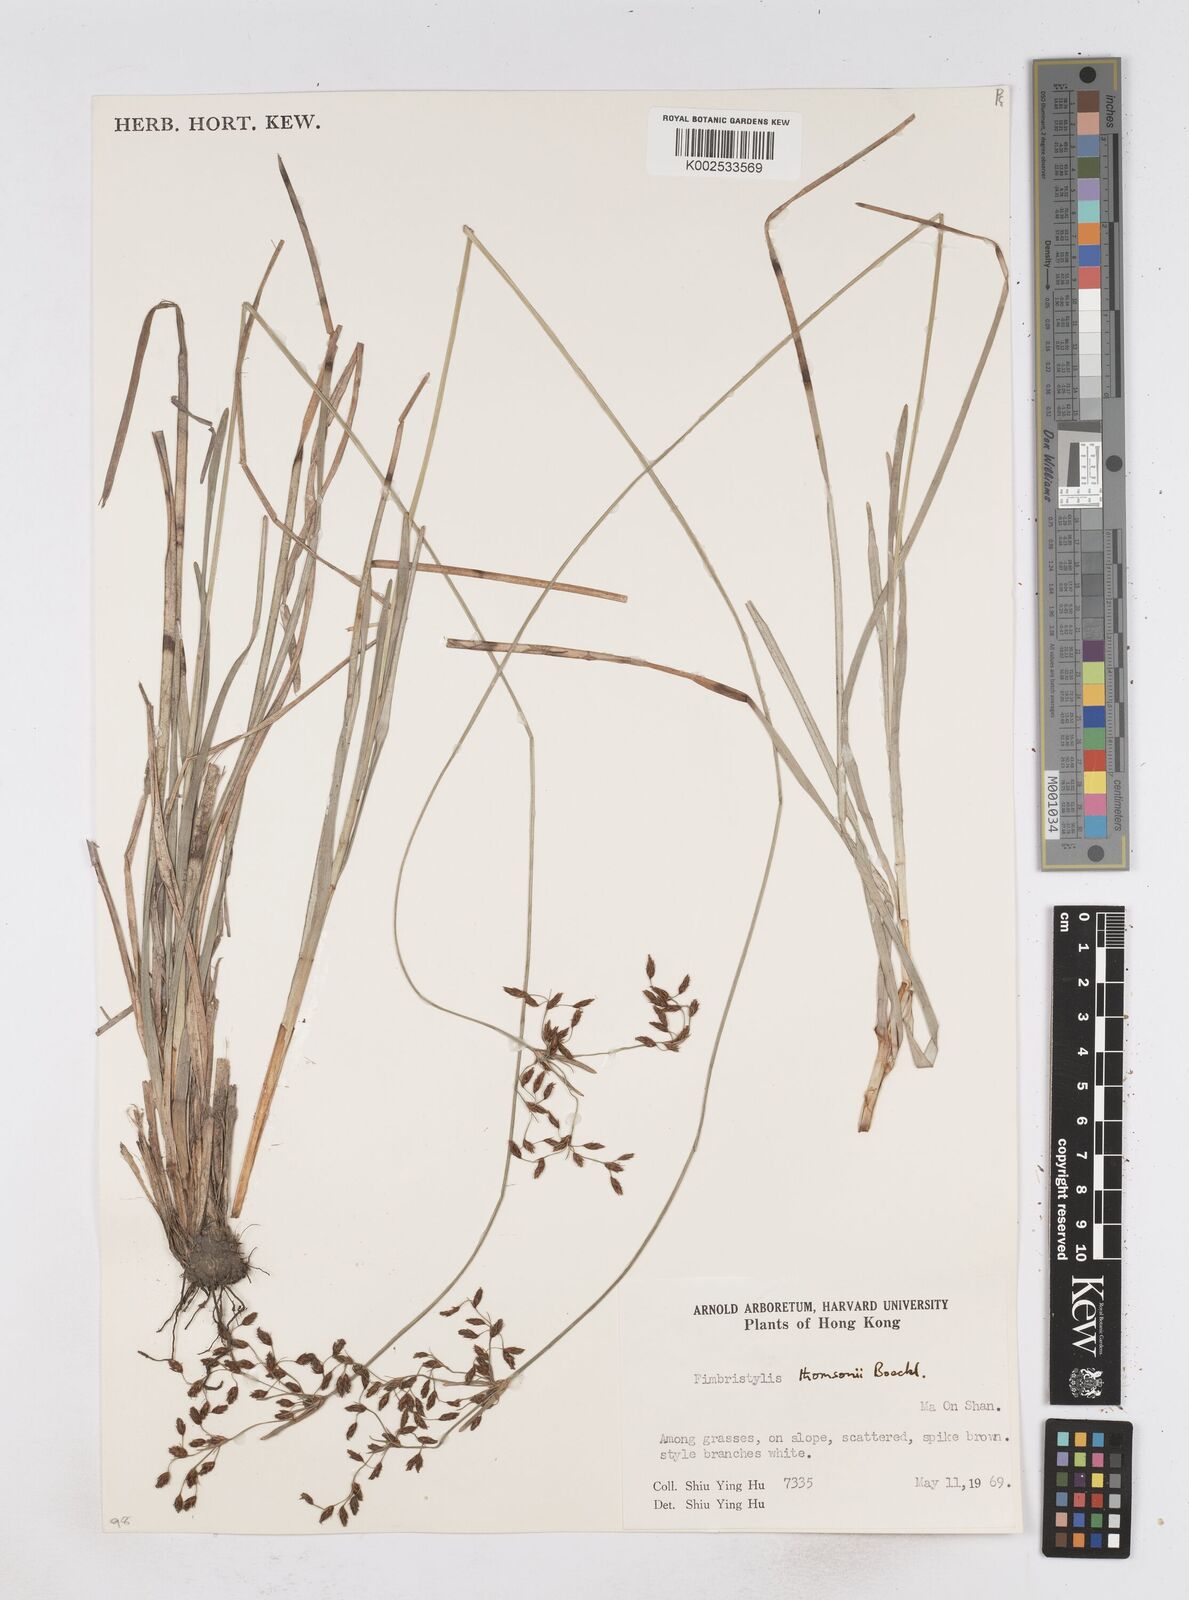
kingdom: Plantae
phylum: Tracheophyta
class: Liliopsida
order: Poales
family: Cyperaceae
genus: Fimbristylis
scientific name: Fimbristylis thomsonii
